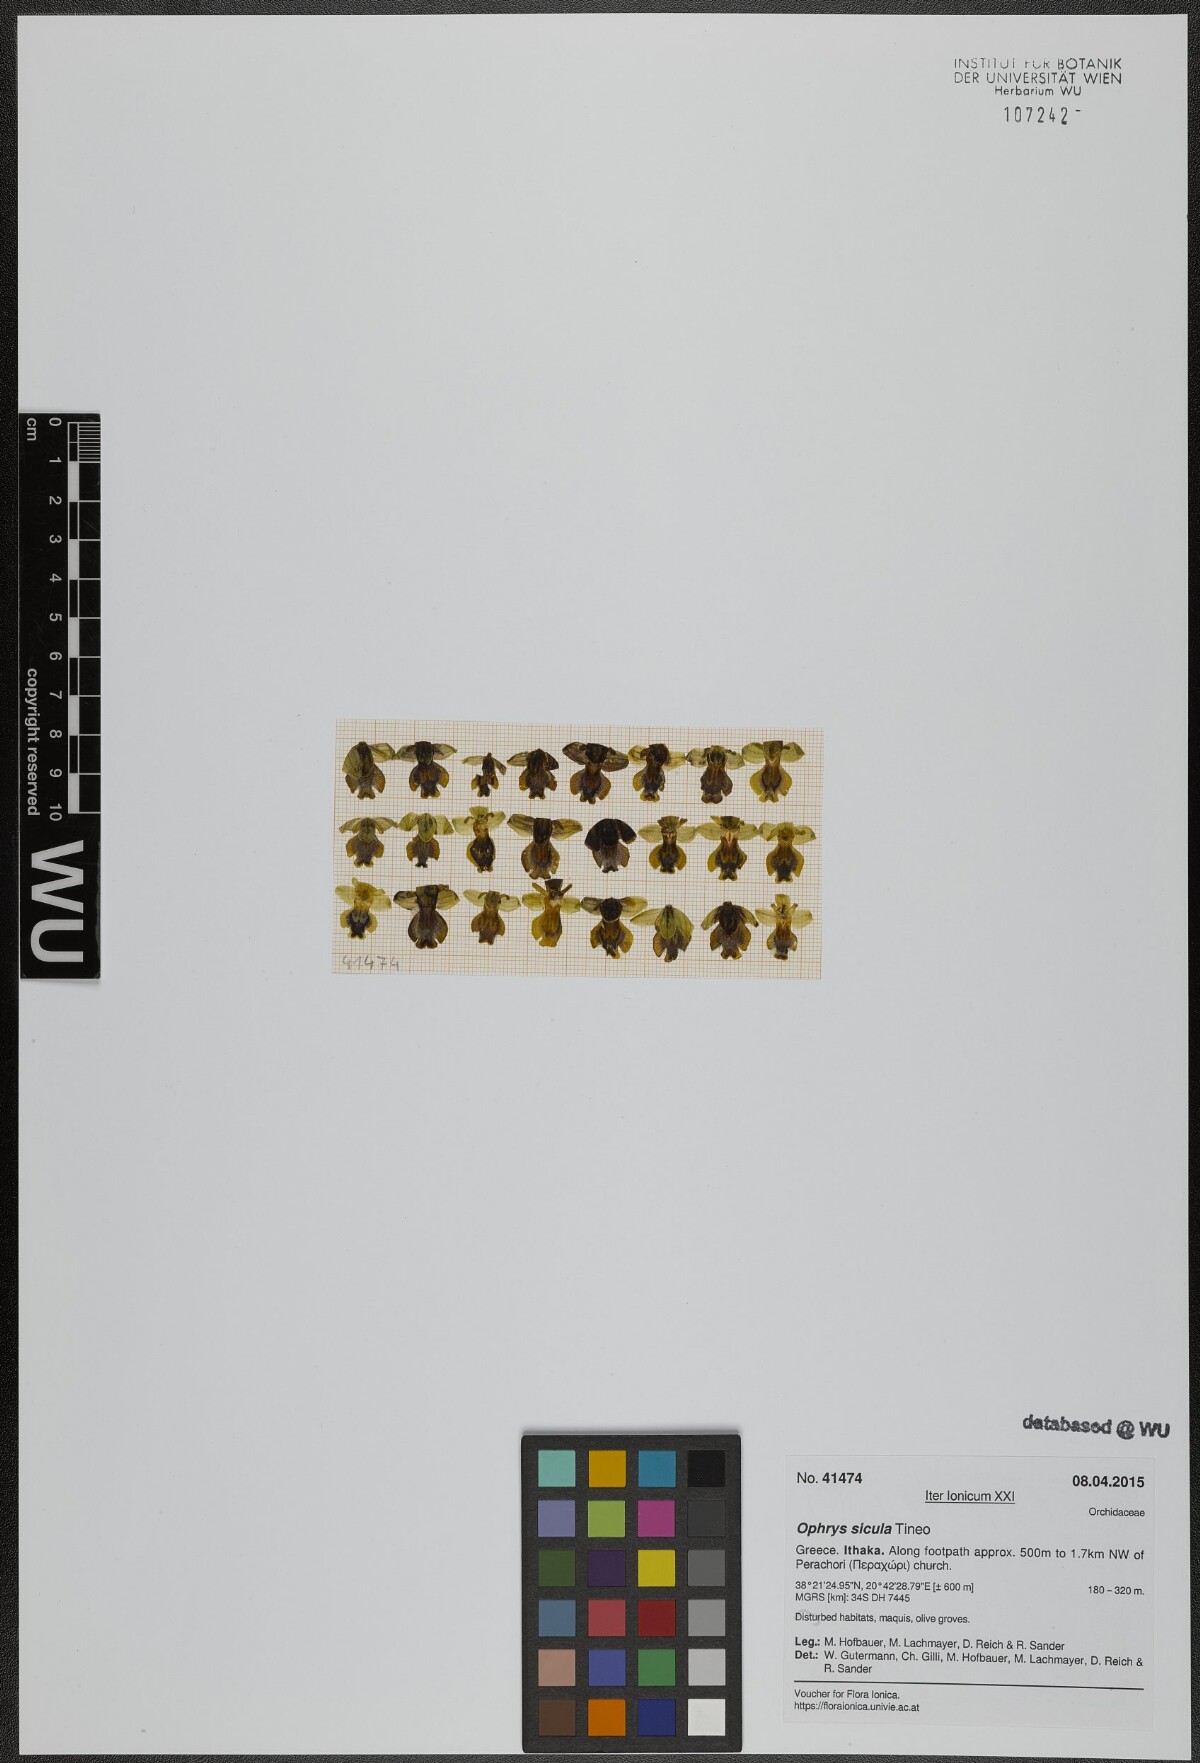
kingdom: Plantae
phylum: Tracheophyta
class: Liliopsida
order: Asparagales
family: Orchidaceae
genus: Ophrys
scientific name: Ophrys lutea
